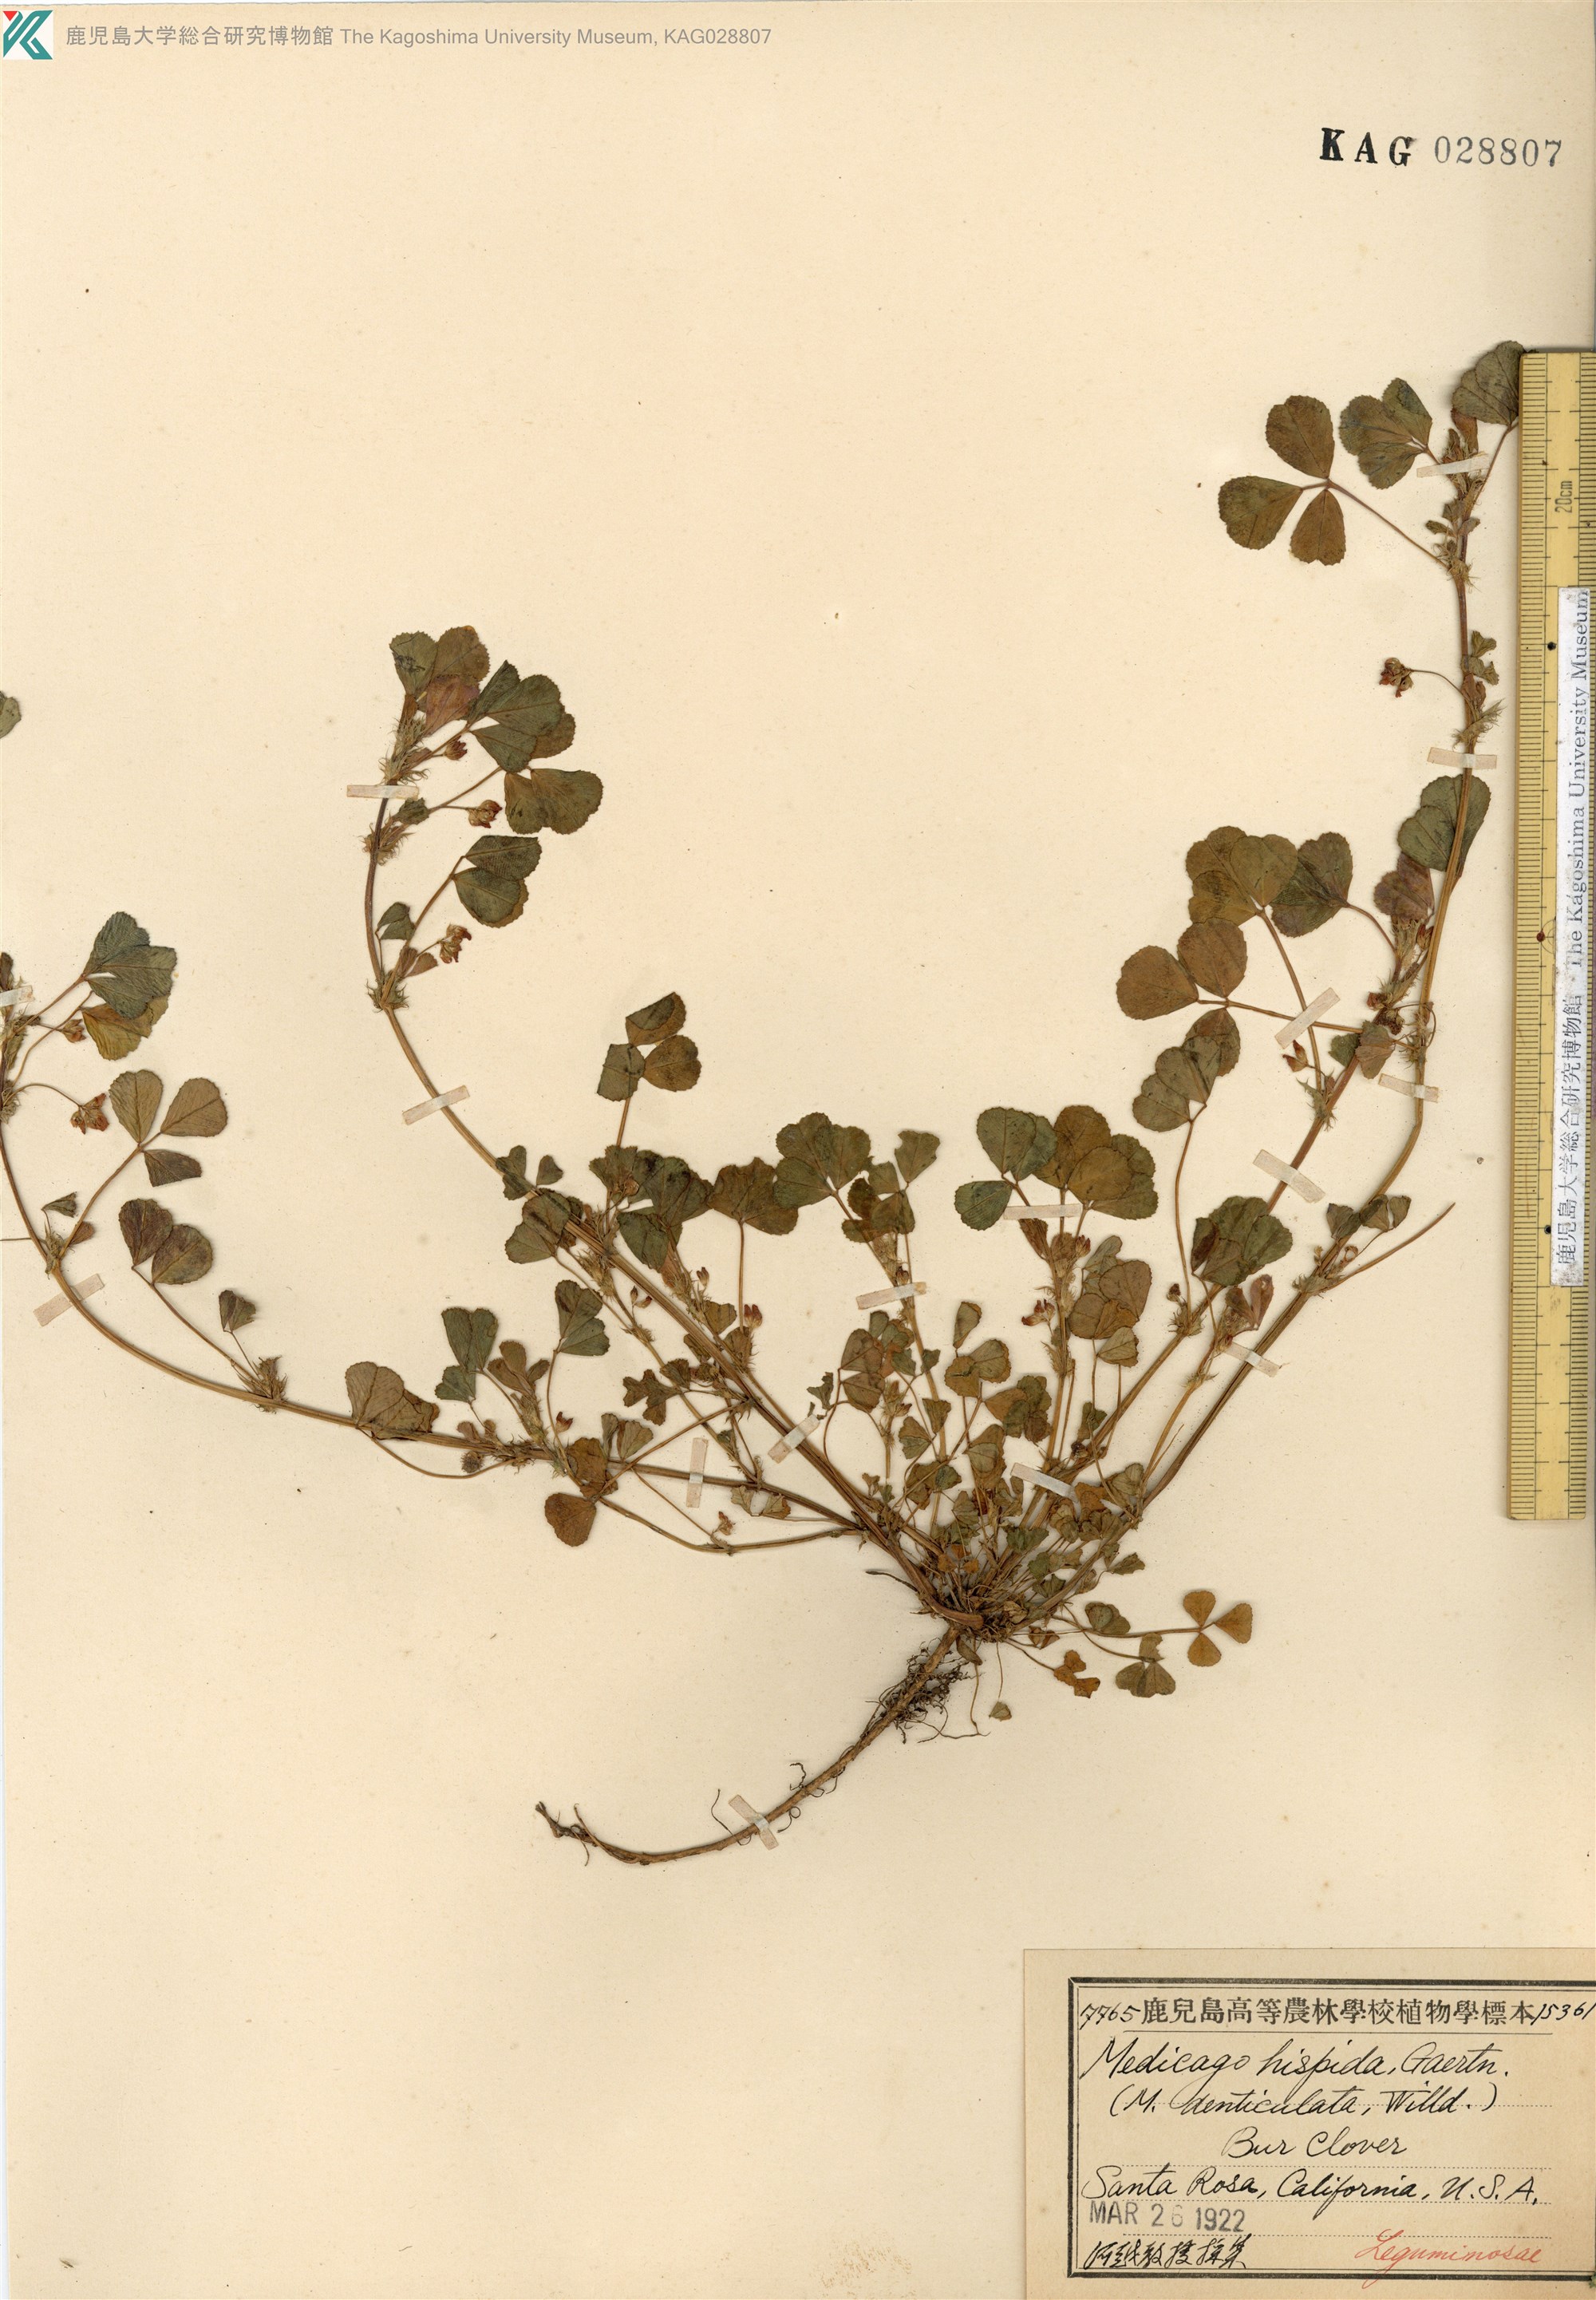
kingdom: Plantae
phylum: Tracheophyta
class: Magnoliopsida
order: Fabales
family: Fabaceae
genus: Medicago
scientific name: Medicago polymorpha
